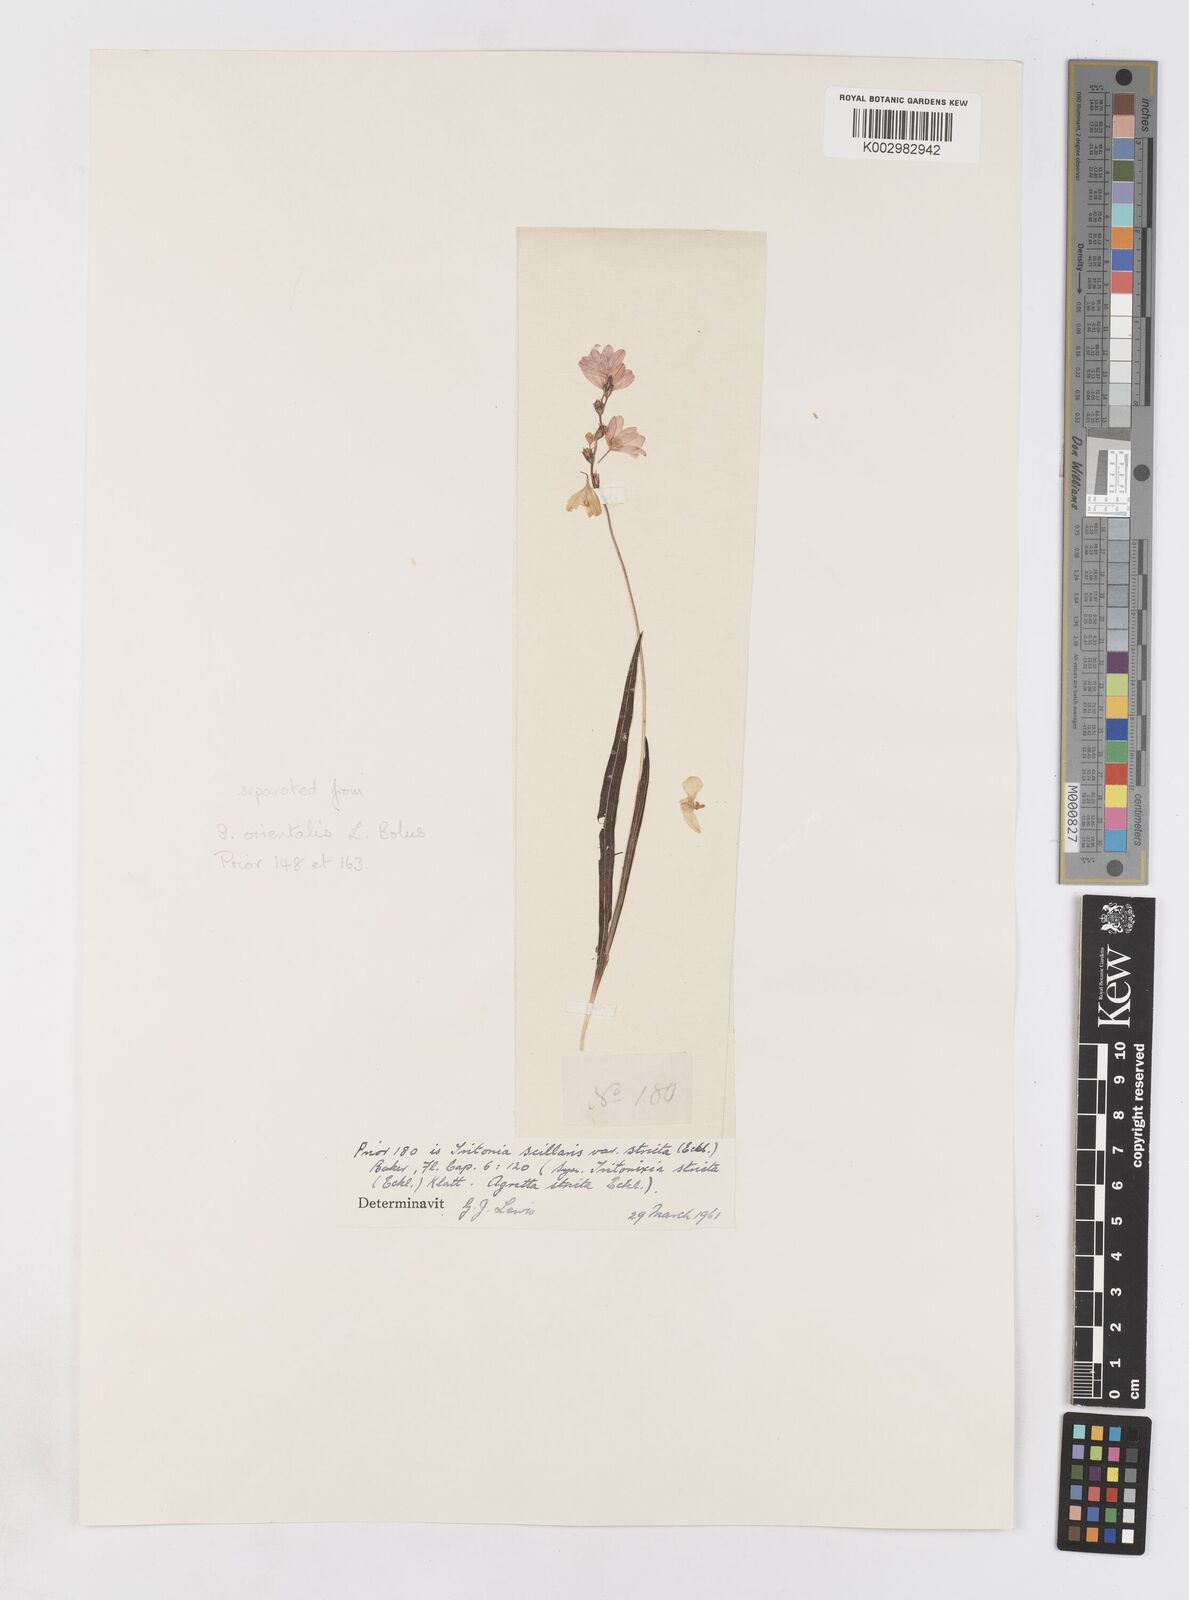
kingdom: Plantae
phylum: Tracheophyta
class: Liliopsida
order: Asparagales
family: Iridaceae
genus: Ixia
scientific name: Ixia scillaris
